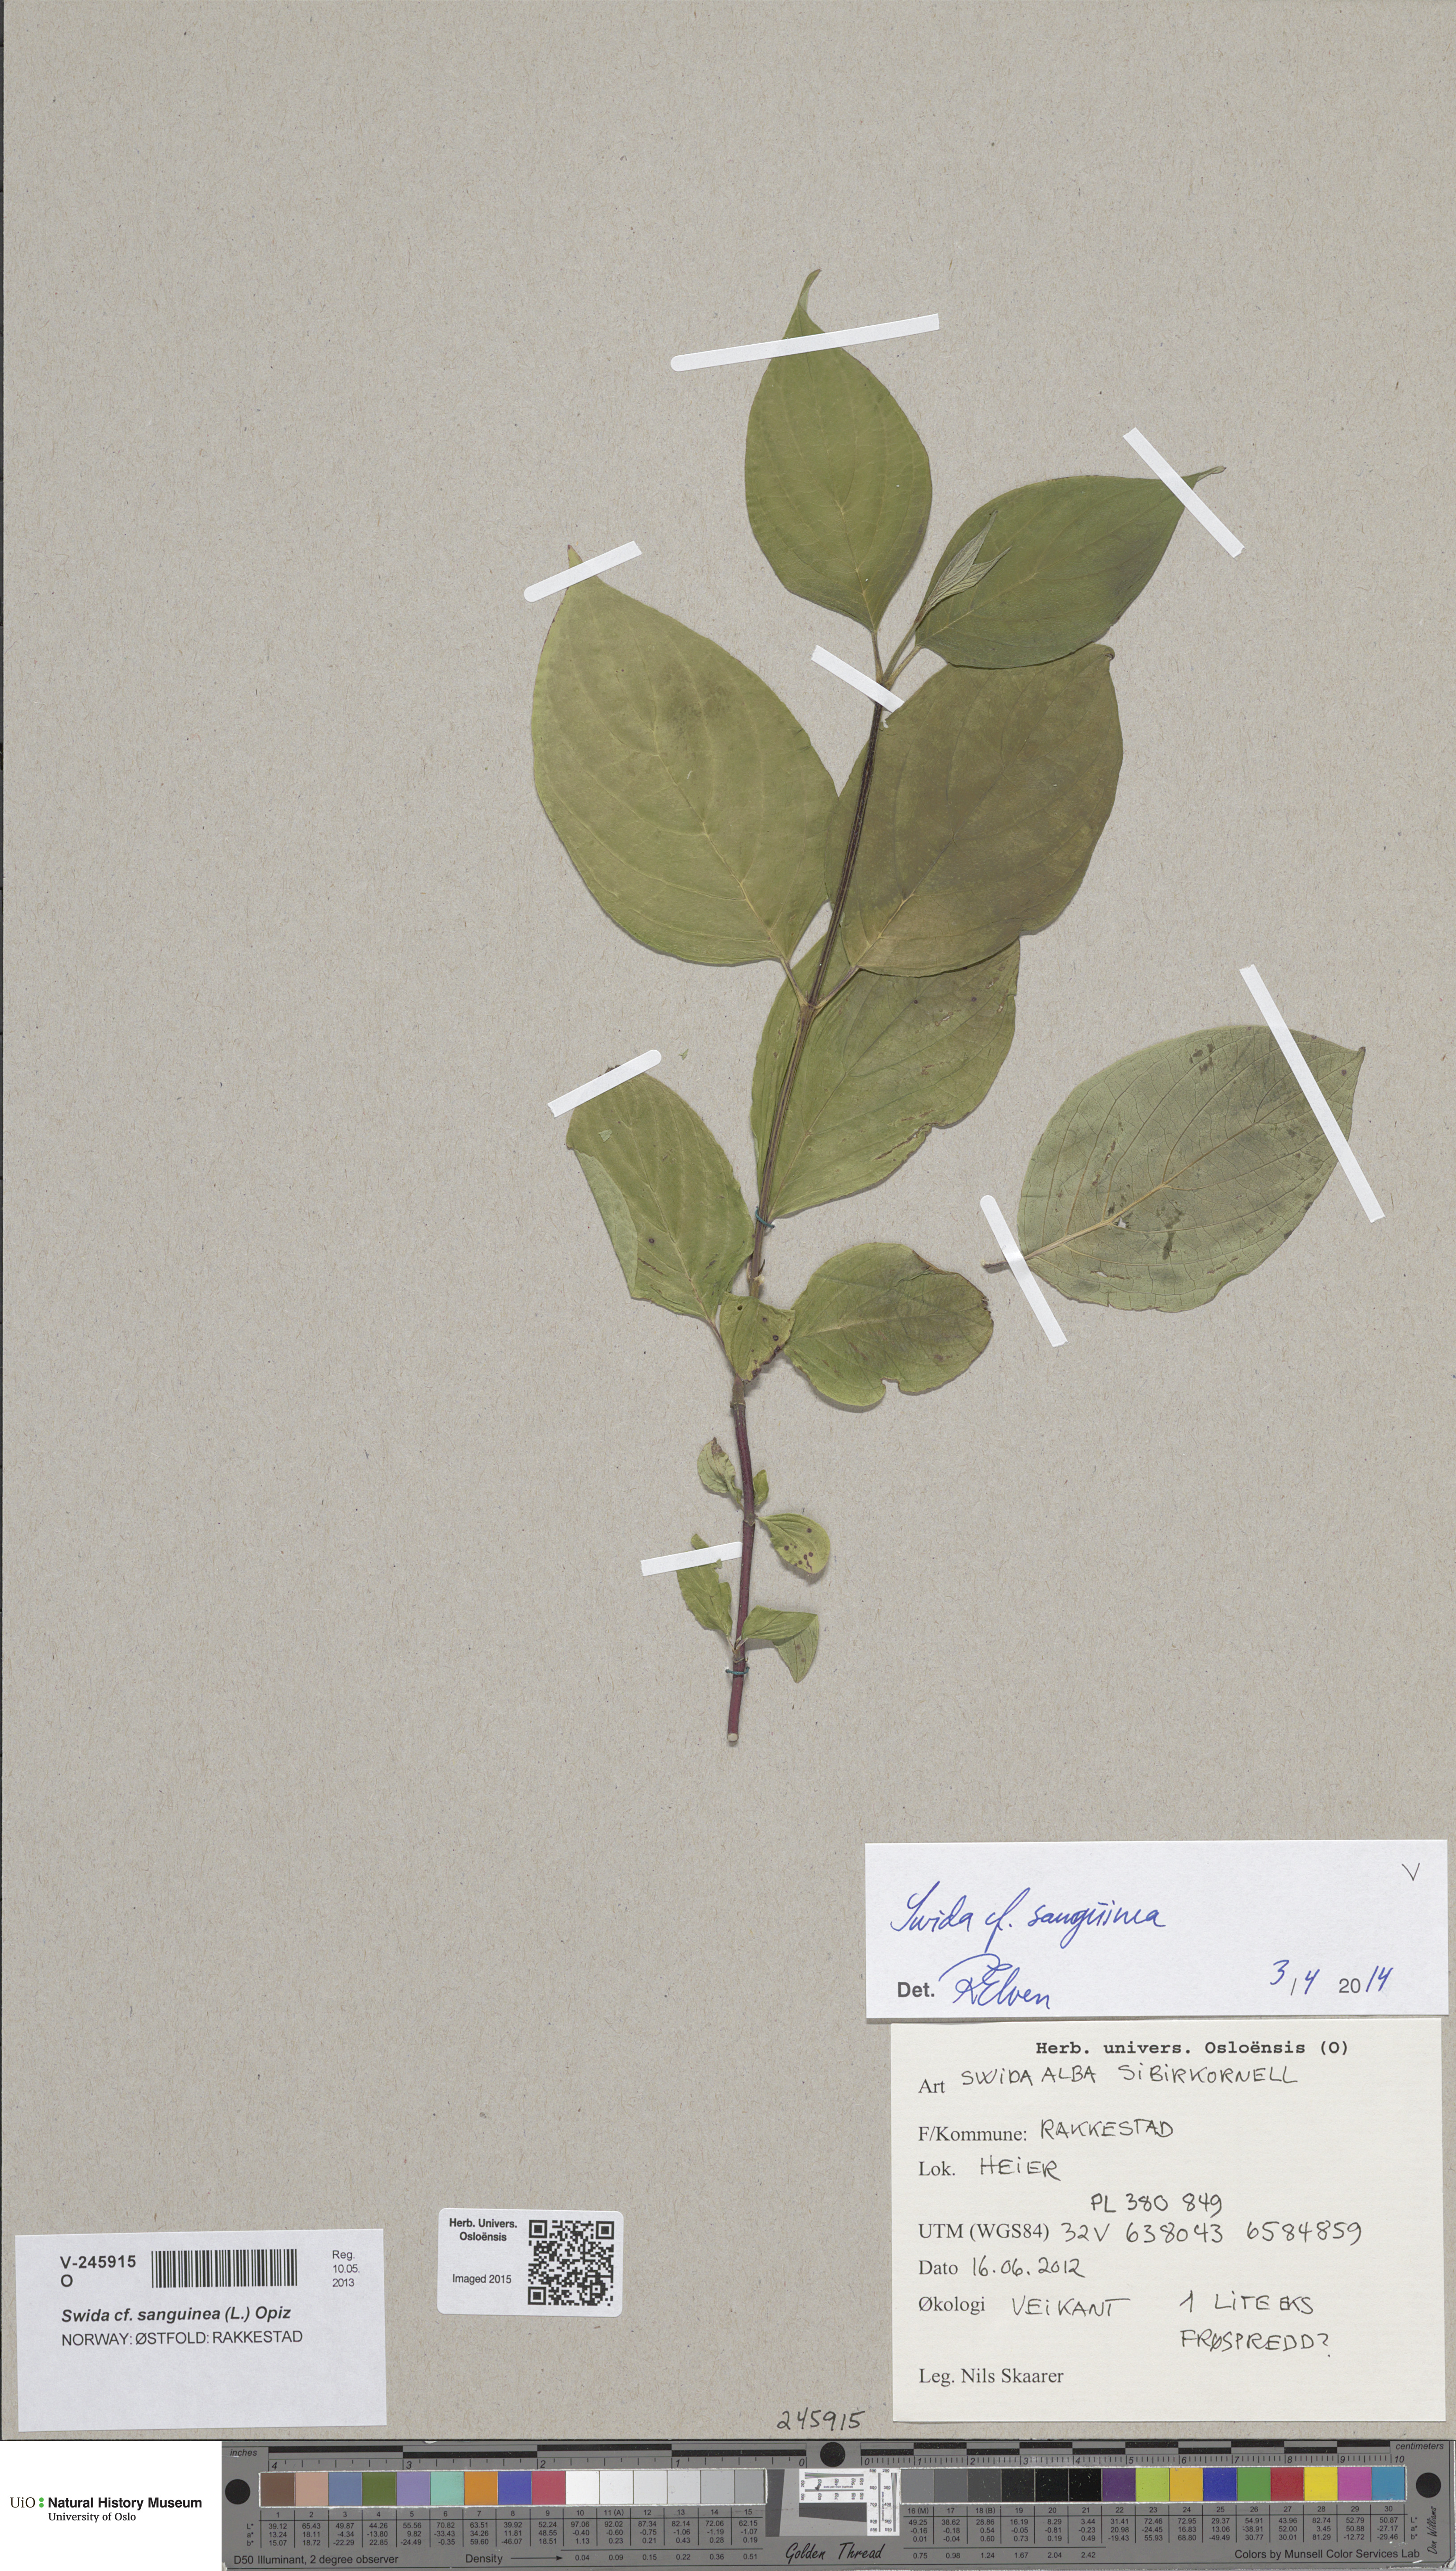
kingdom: Plantae
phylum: Tracheophyta
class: Magnoliopsida
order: Cornales
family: Cornaceae
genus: Cornus
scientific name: Cornus alba
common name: White dogwood
